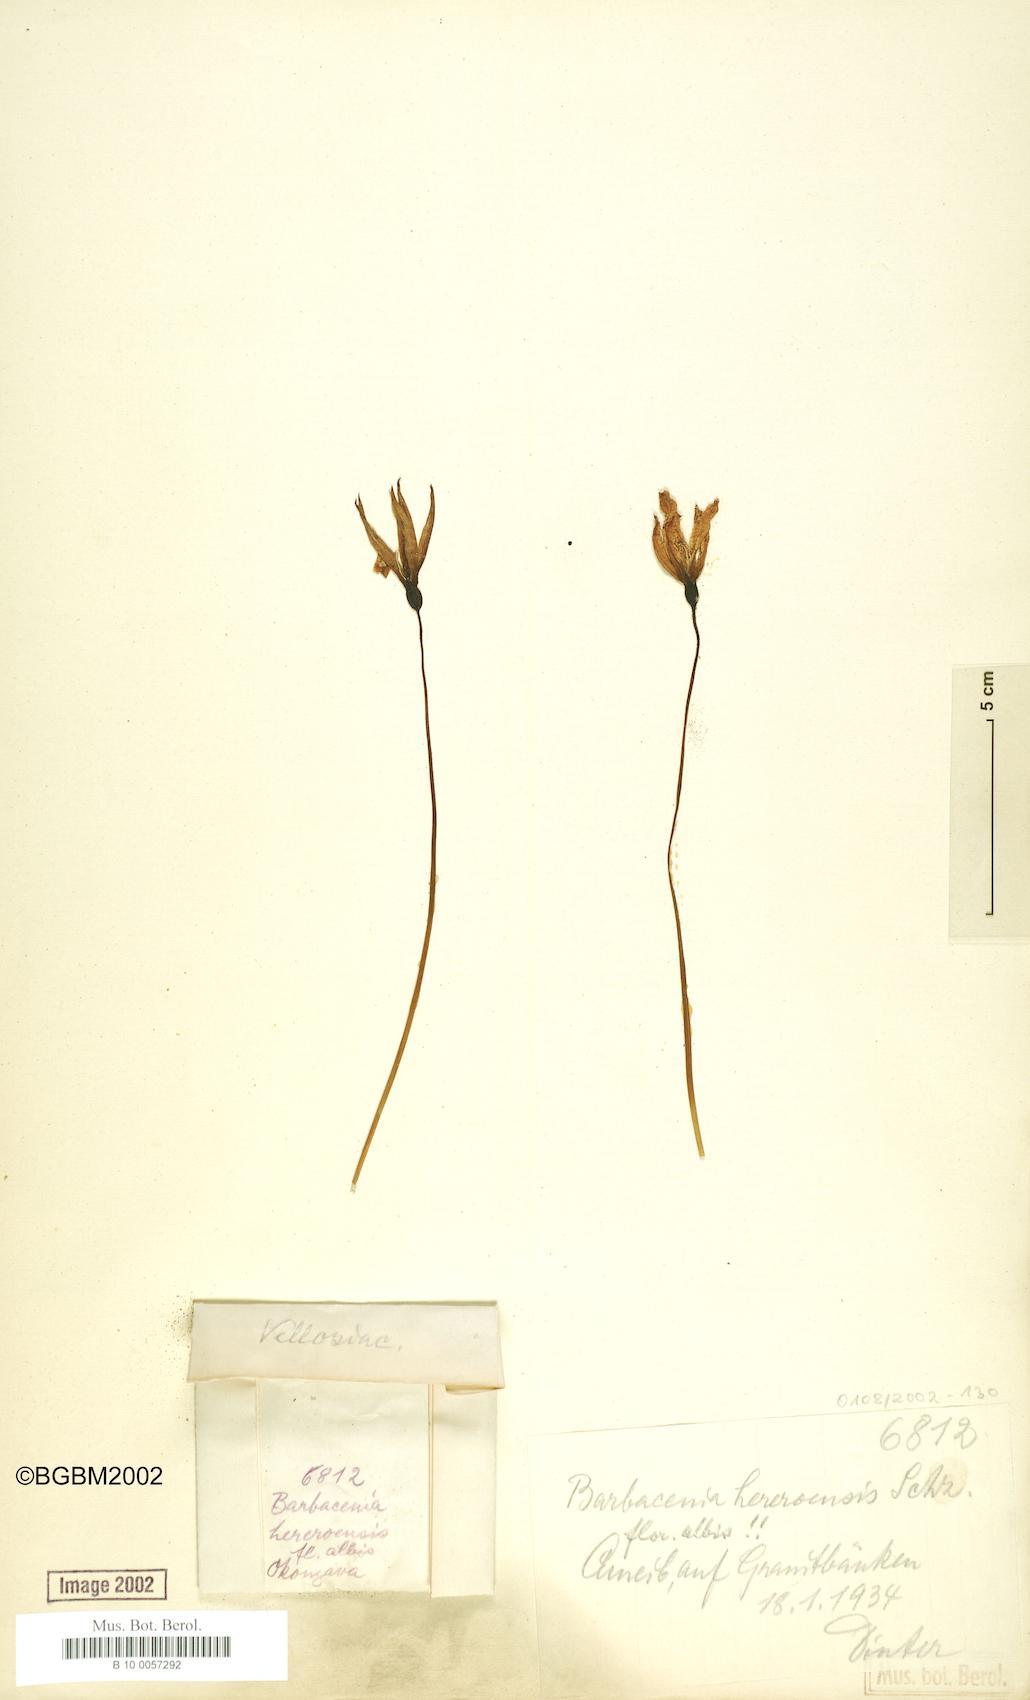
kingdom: Plantae
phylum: Tracheophyta
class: Liliopsida
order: Pandanales
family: Velloziaceae
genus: Xerophyta
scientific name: Xerophyta rosea
